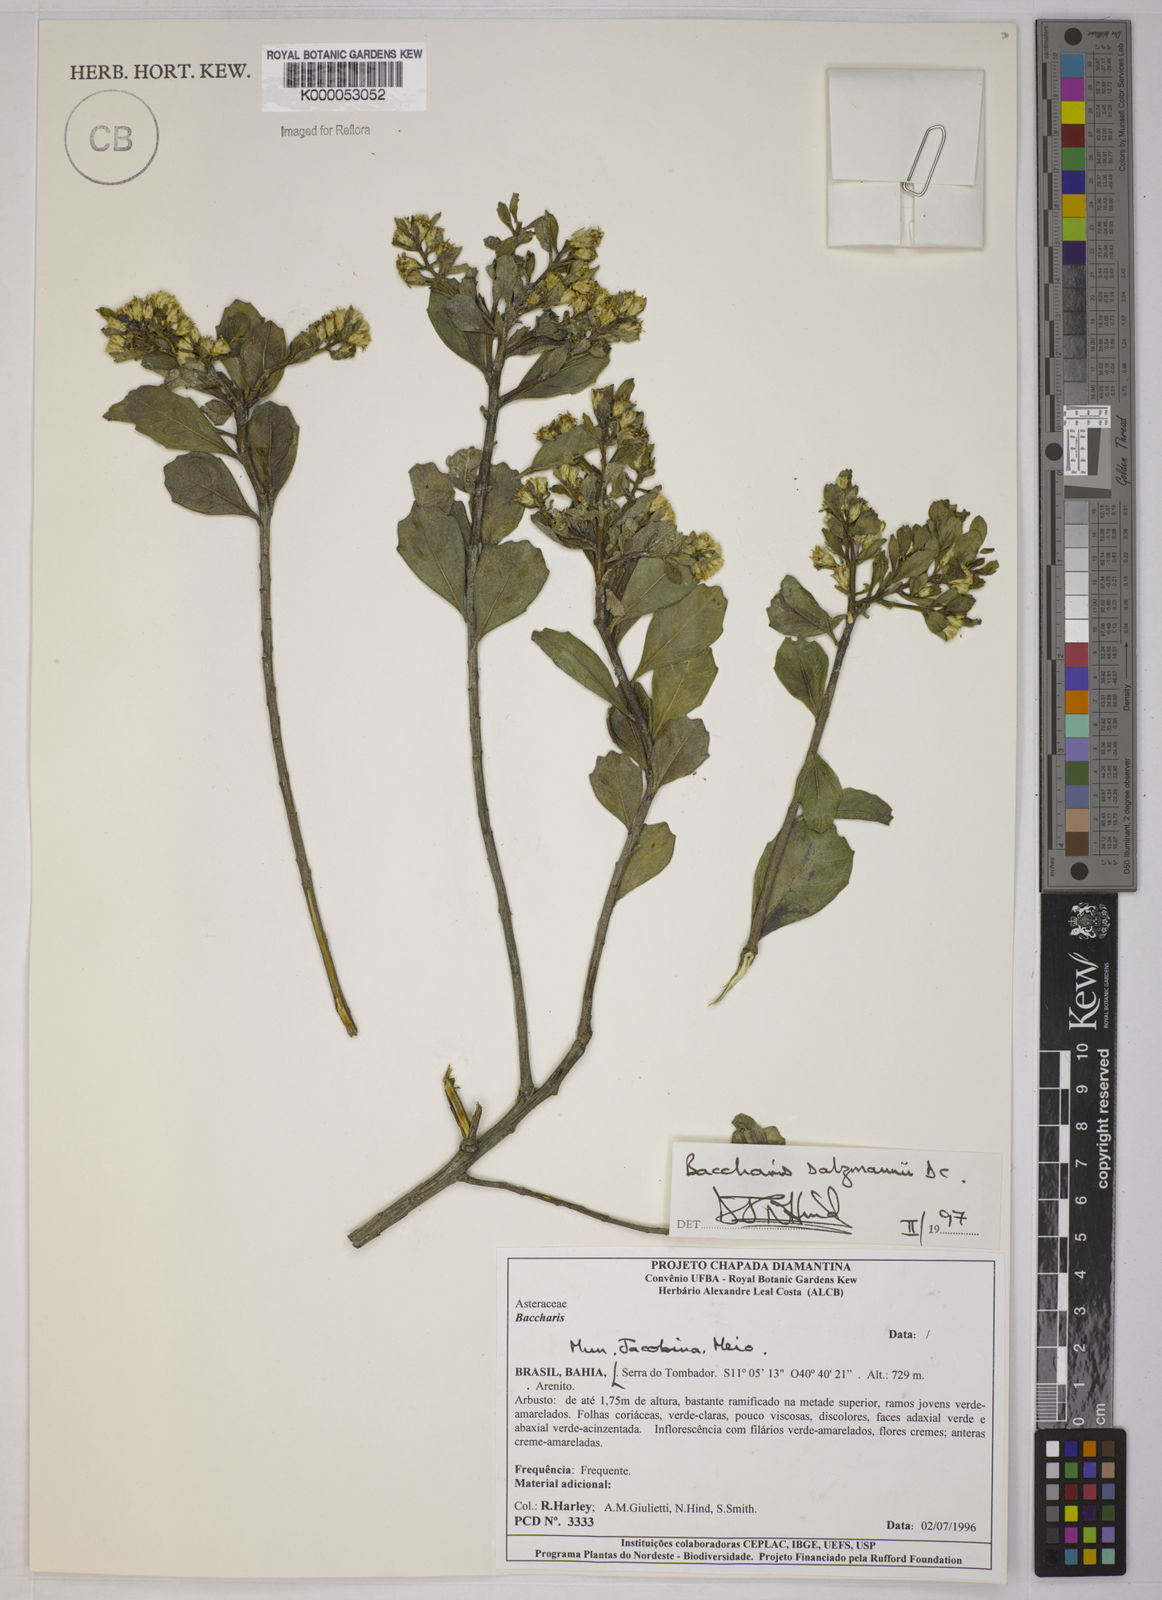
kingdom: Plantae
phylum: Tracheophyta
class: Magnoliopsida
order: Asterales
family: Asteraceae
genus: Baccharis
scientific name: Baccharis retusa
